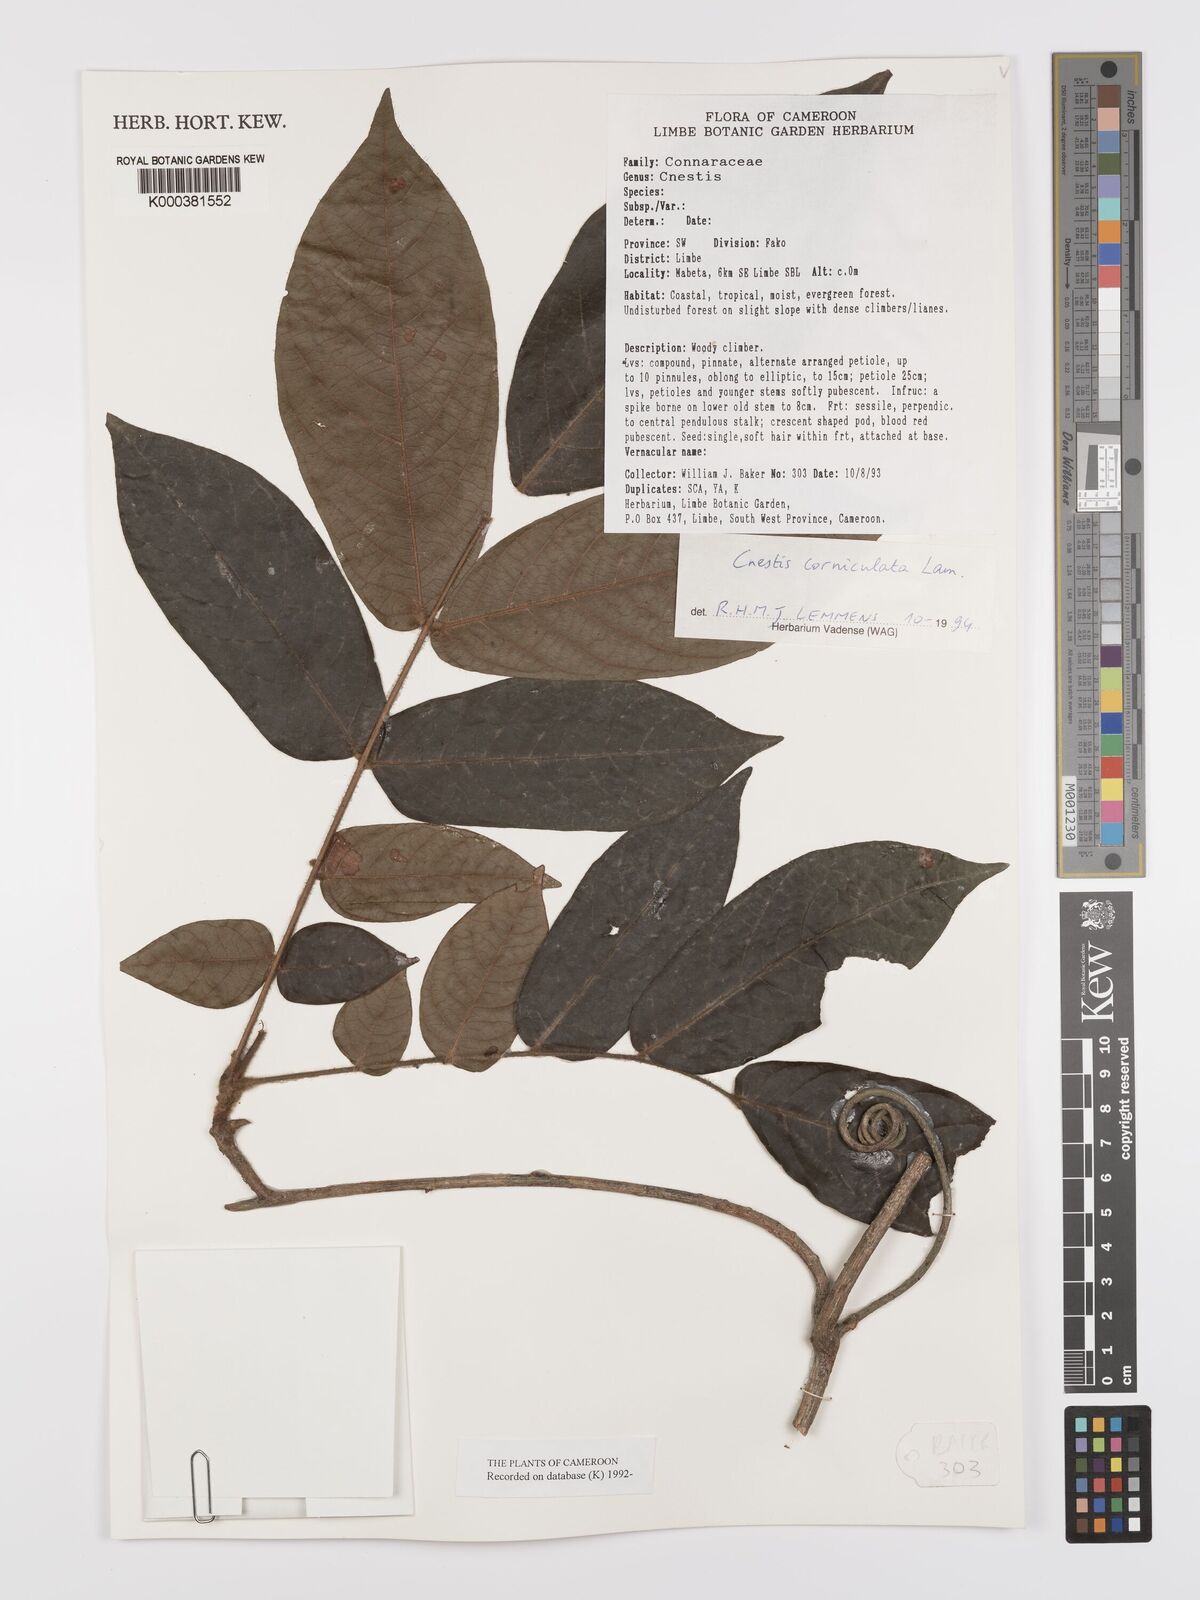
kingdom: Plantae
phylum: Tracheophyta
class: Magnoliopsida
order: Oxalidales
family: Connaraceae
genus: Cnestis
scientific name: Cnestis corniculata
